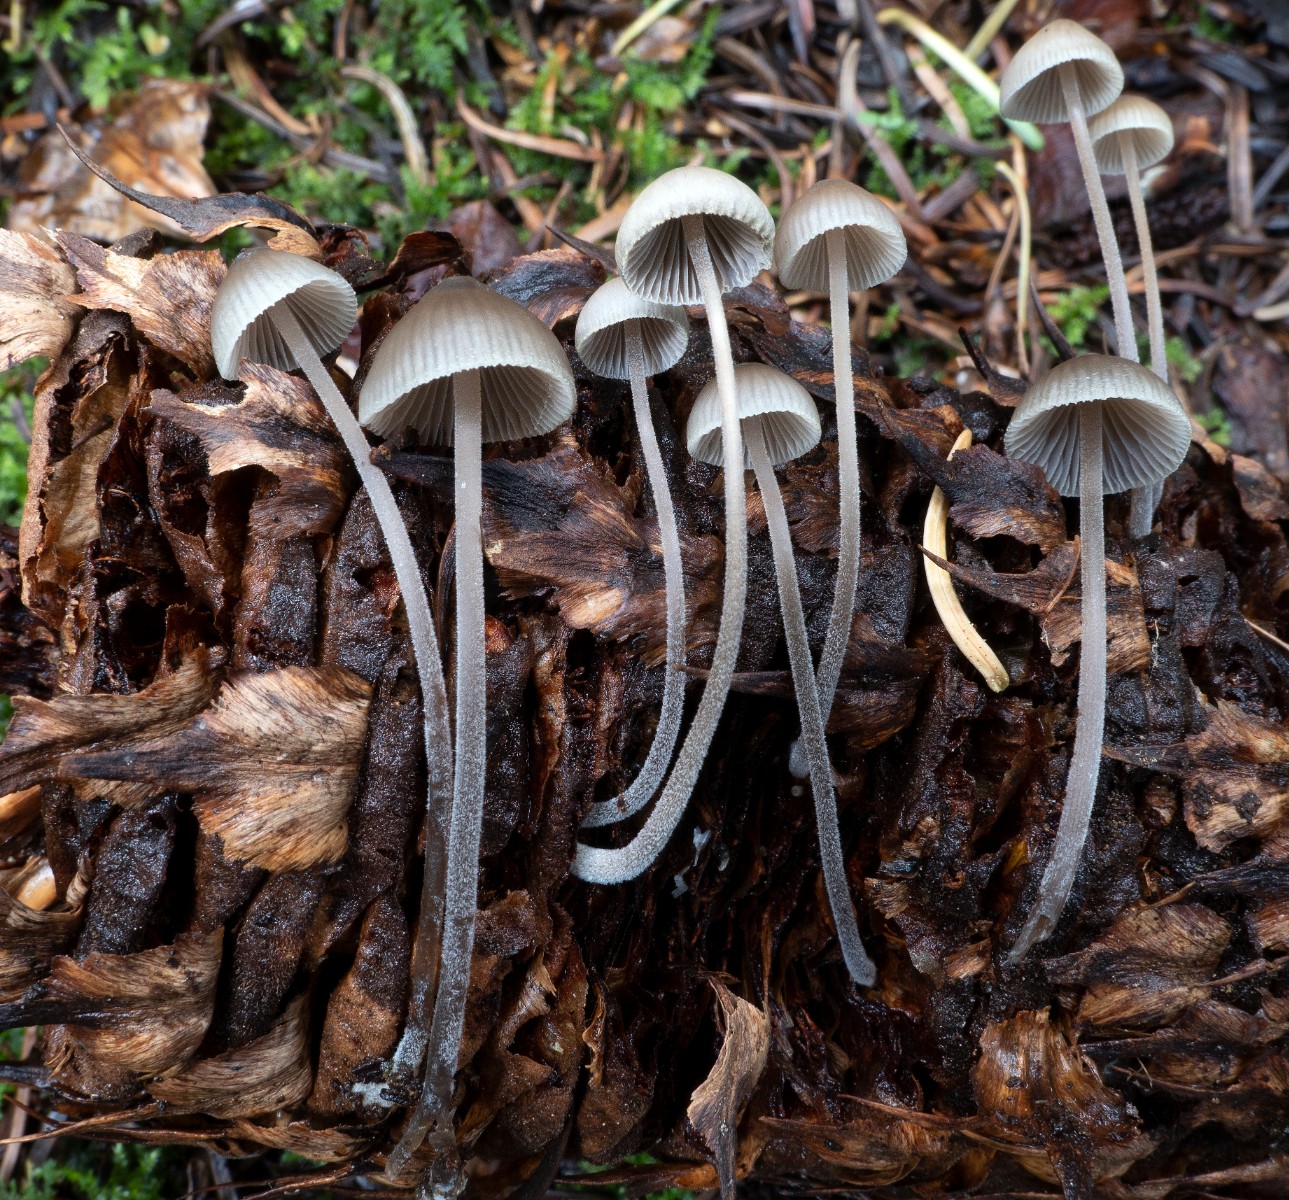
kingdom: Fungi
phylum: Basidiomycota
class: Agaricomycetes
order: Agaricales
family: Mycenaceae
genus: Mycena
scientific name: Mycena amicta
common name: iris-huesvamp
